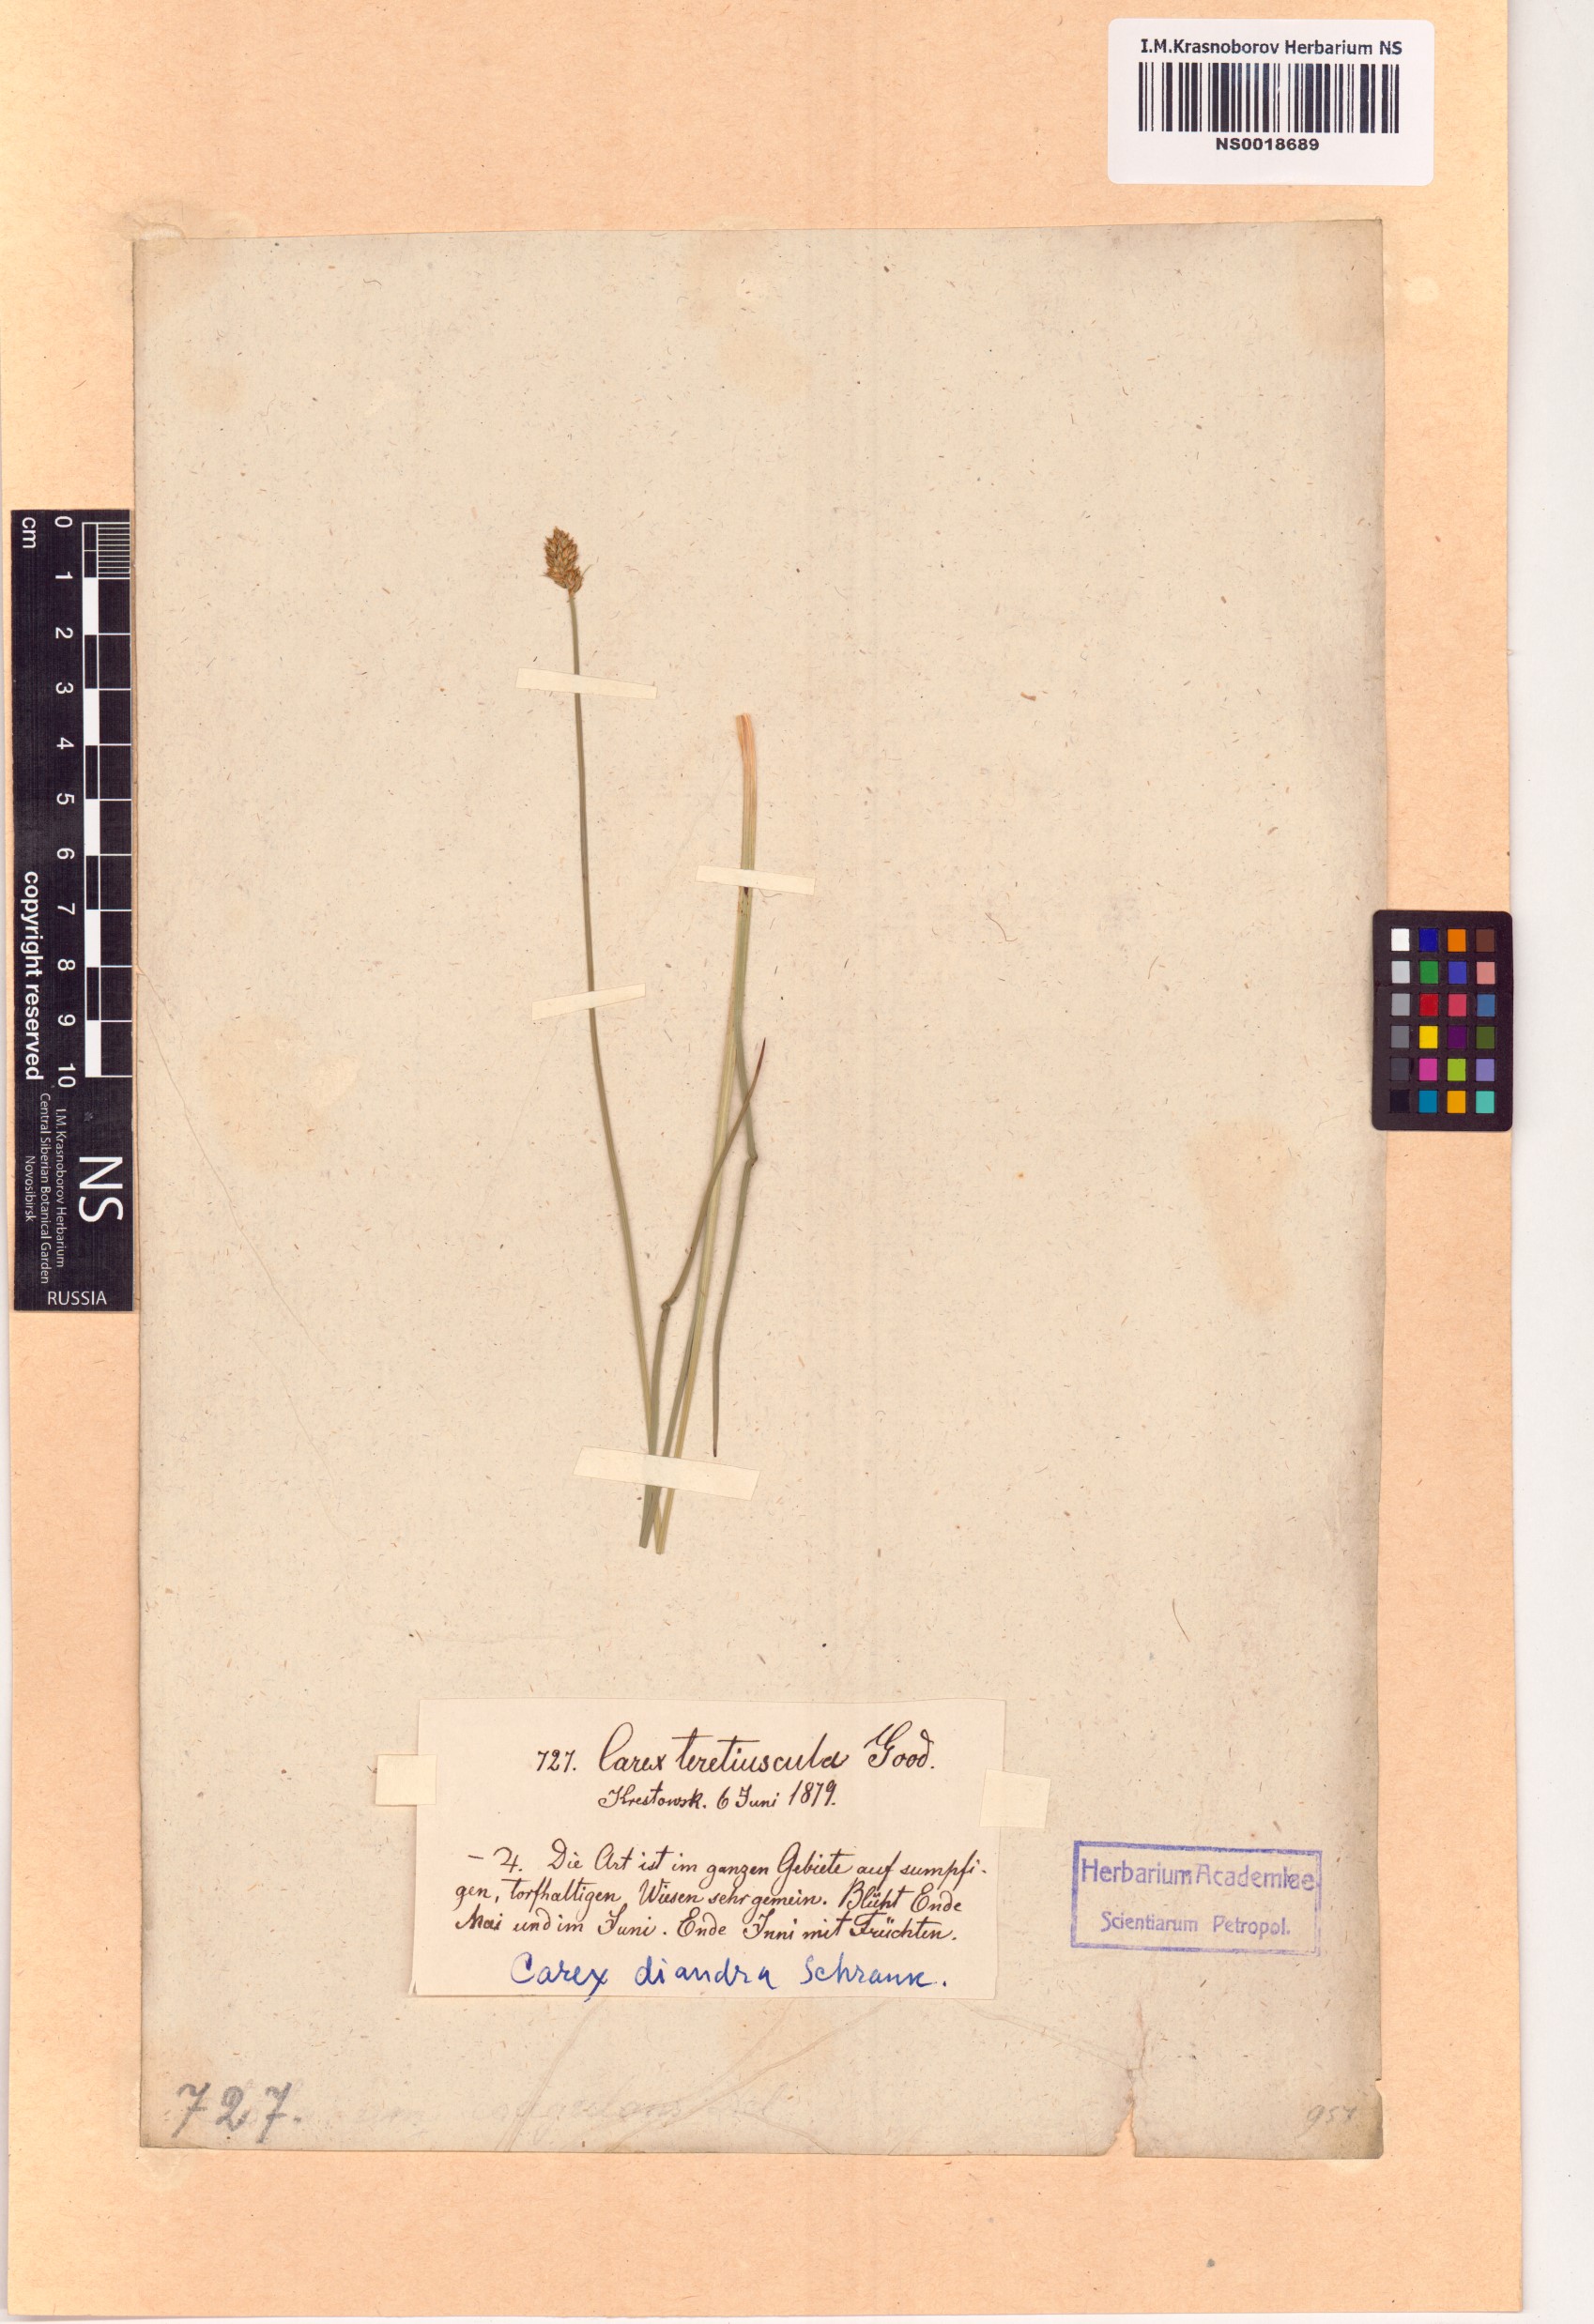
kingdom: Plantae
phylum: Tracheophyta
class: Liliopsida
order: Poales
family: Cyperaceae
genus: Carex
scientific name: Carex diandra
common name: Lesser tussock-sedge
